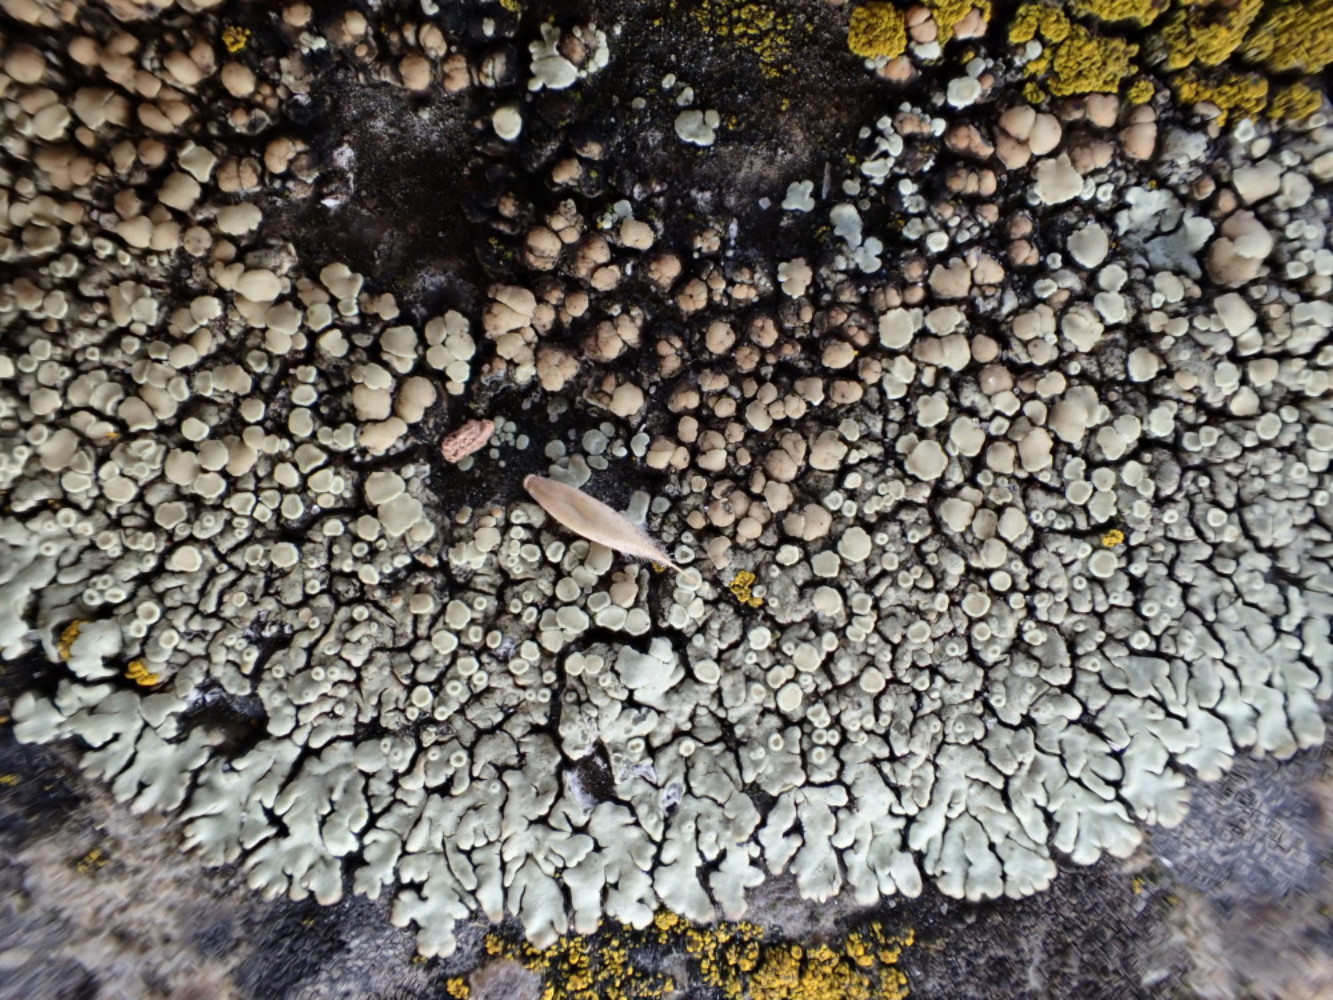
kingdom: Fungi
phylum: Ascomycota
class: Lecanoromycetes
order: Lecanorales
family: Lecanoraceae
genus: Protoparmeliopsis
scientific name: Protoparmeliopsis muralis
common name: randfliget kantskivelav
